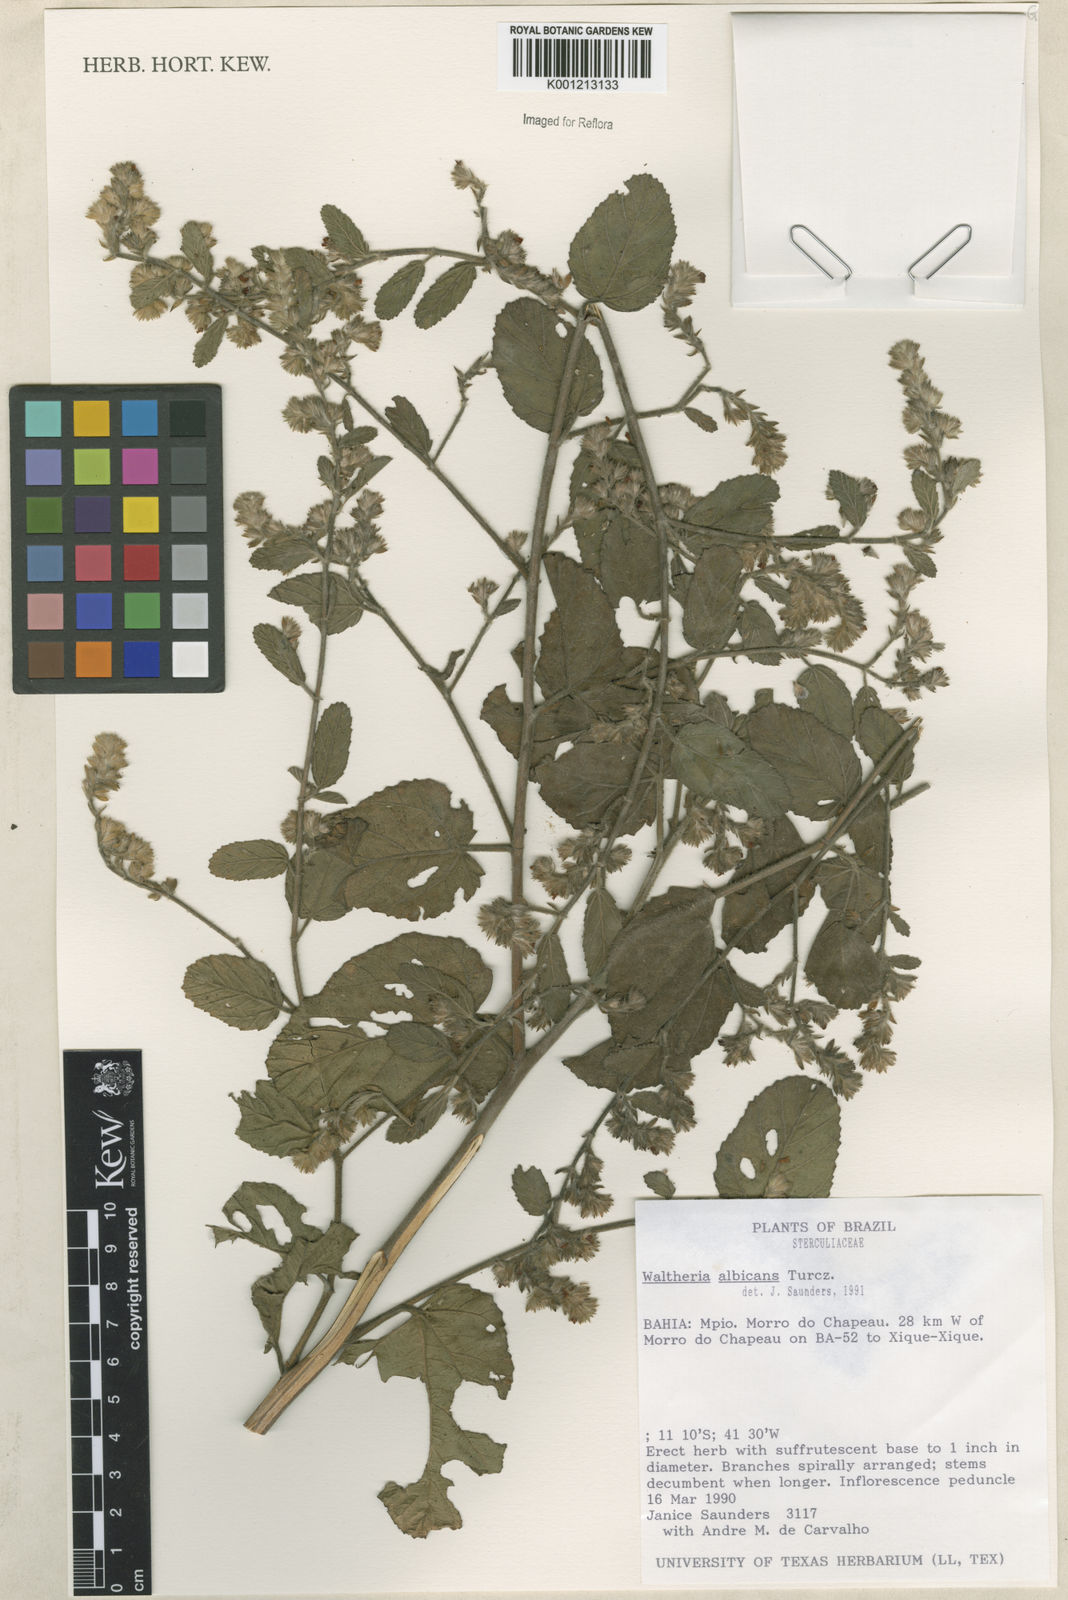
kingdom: Plantae
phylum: Tracheophyta
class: Magnoliopsida
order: Malvales
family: Malvaceae
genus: Waltheria
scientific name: Waltheria albicans
